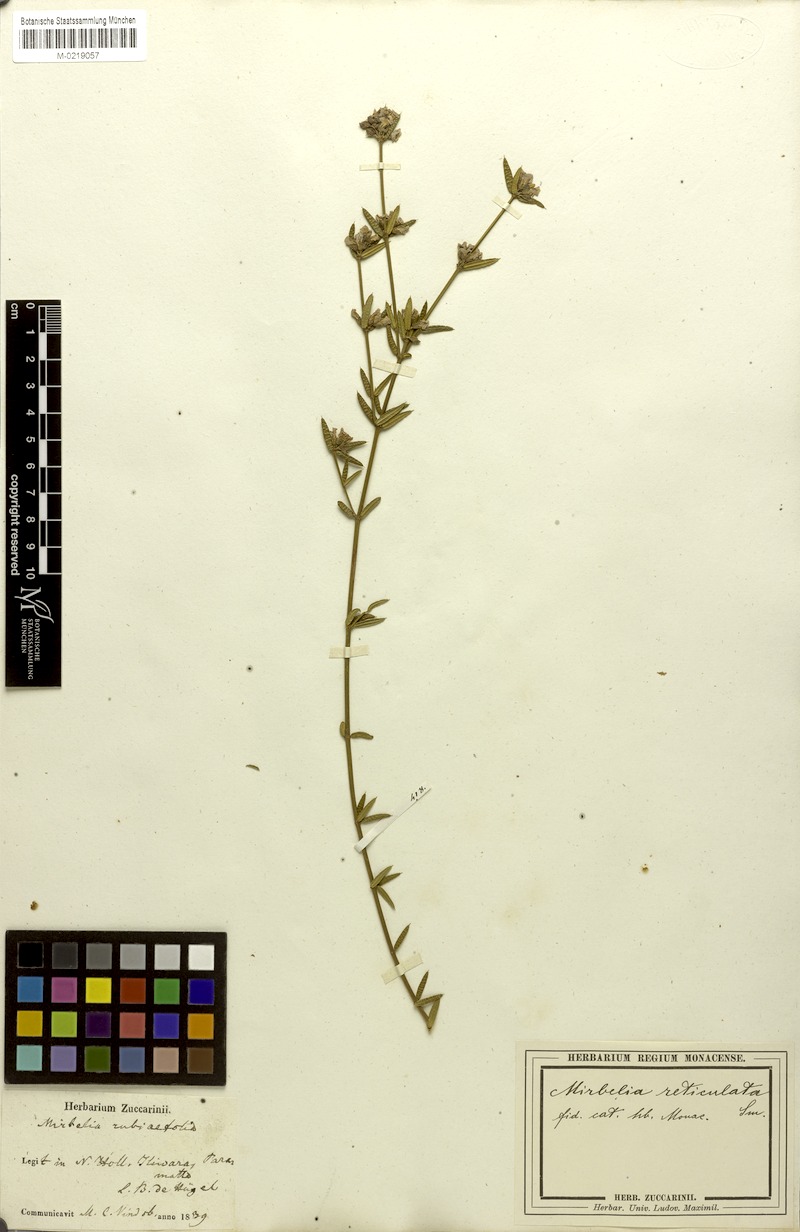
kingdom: Plantae
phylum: Tracheophyta
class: Magnoliopsida
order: Fabales
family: Fabaceae
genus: Mirbelia
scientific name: Mirbelia rubiifolia
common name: Heathy mirbelia
